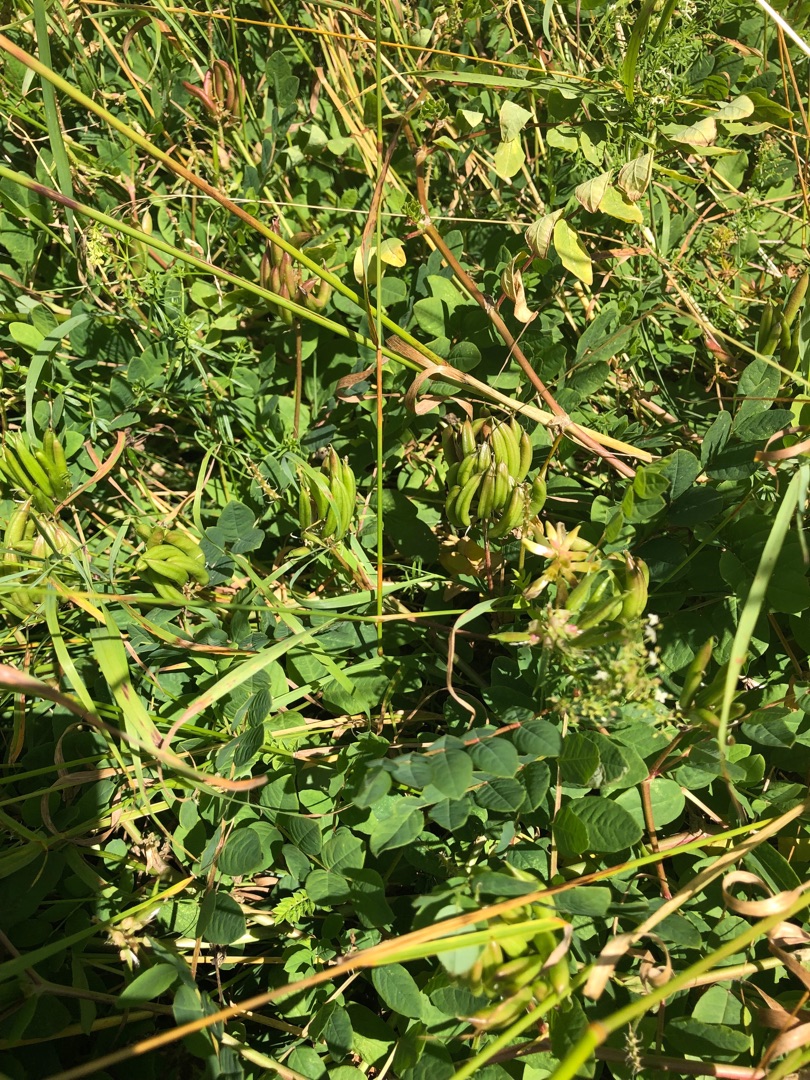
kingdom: Plantae
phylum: Tracheophyta
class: Magnoliopsida
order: Fabales
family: Fabaceae
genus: Astragalus
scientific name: Astragalus glycyphyllos
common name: Sød astragel
